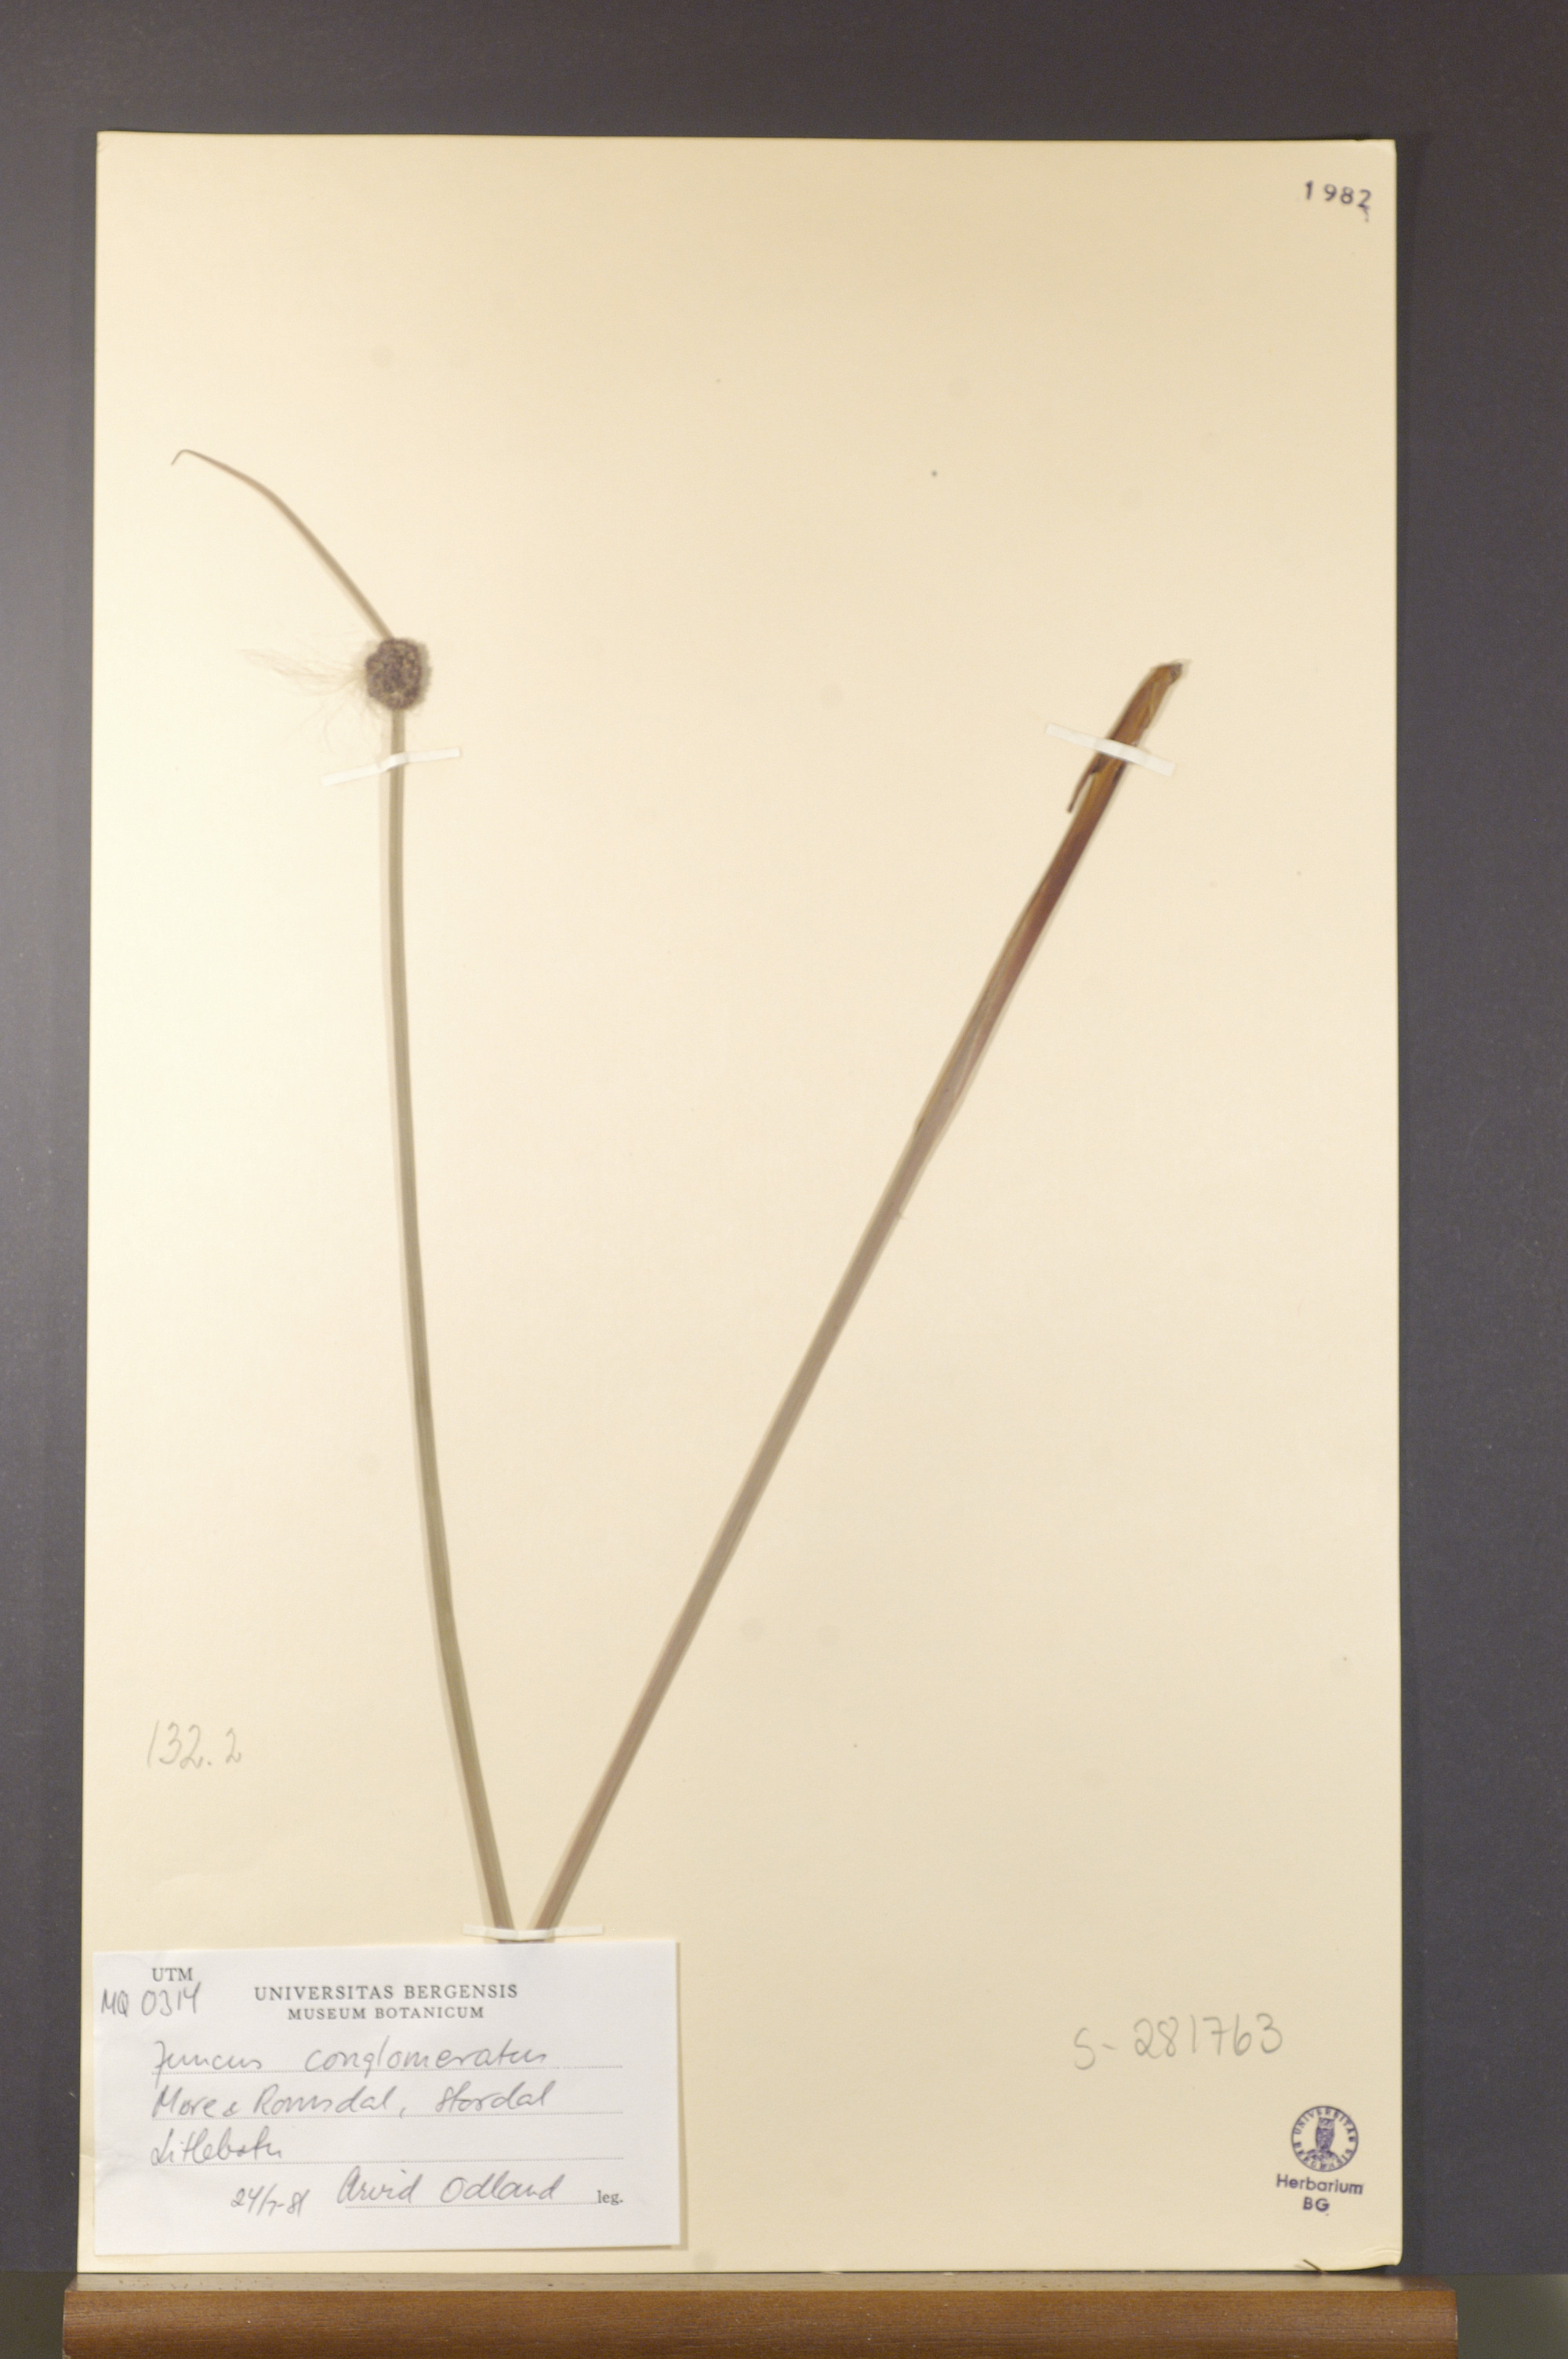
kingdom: Plantae
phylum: Tracheophyta
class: Liliopsida
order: Poales
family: Juncaceae
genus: Juncus
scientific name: Juncus conglomeratus
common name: Compact rush
